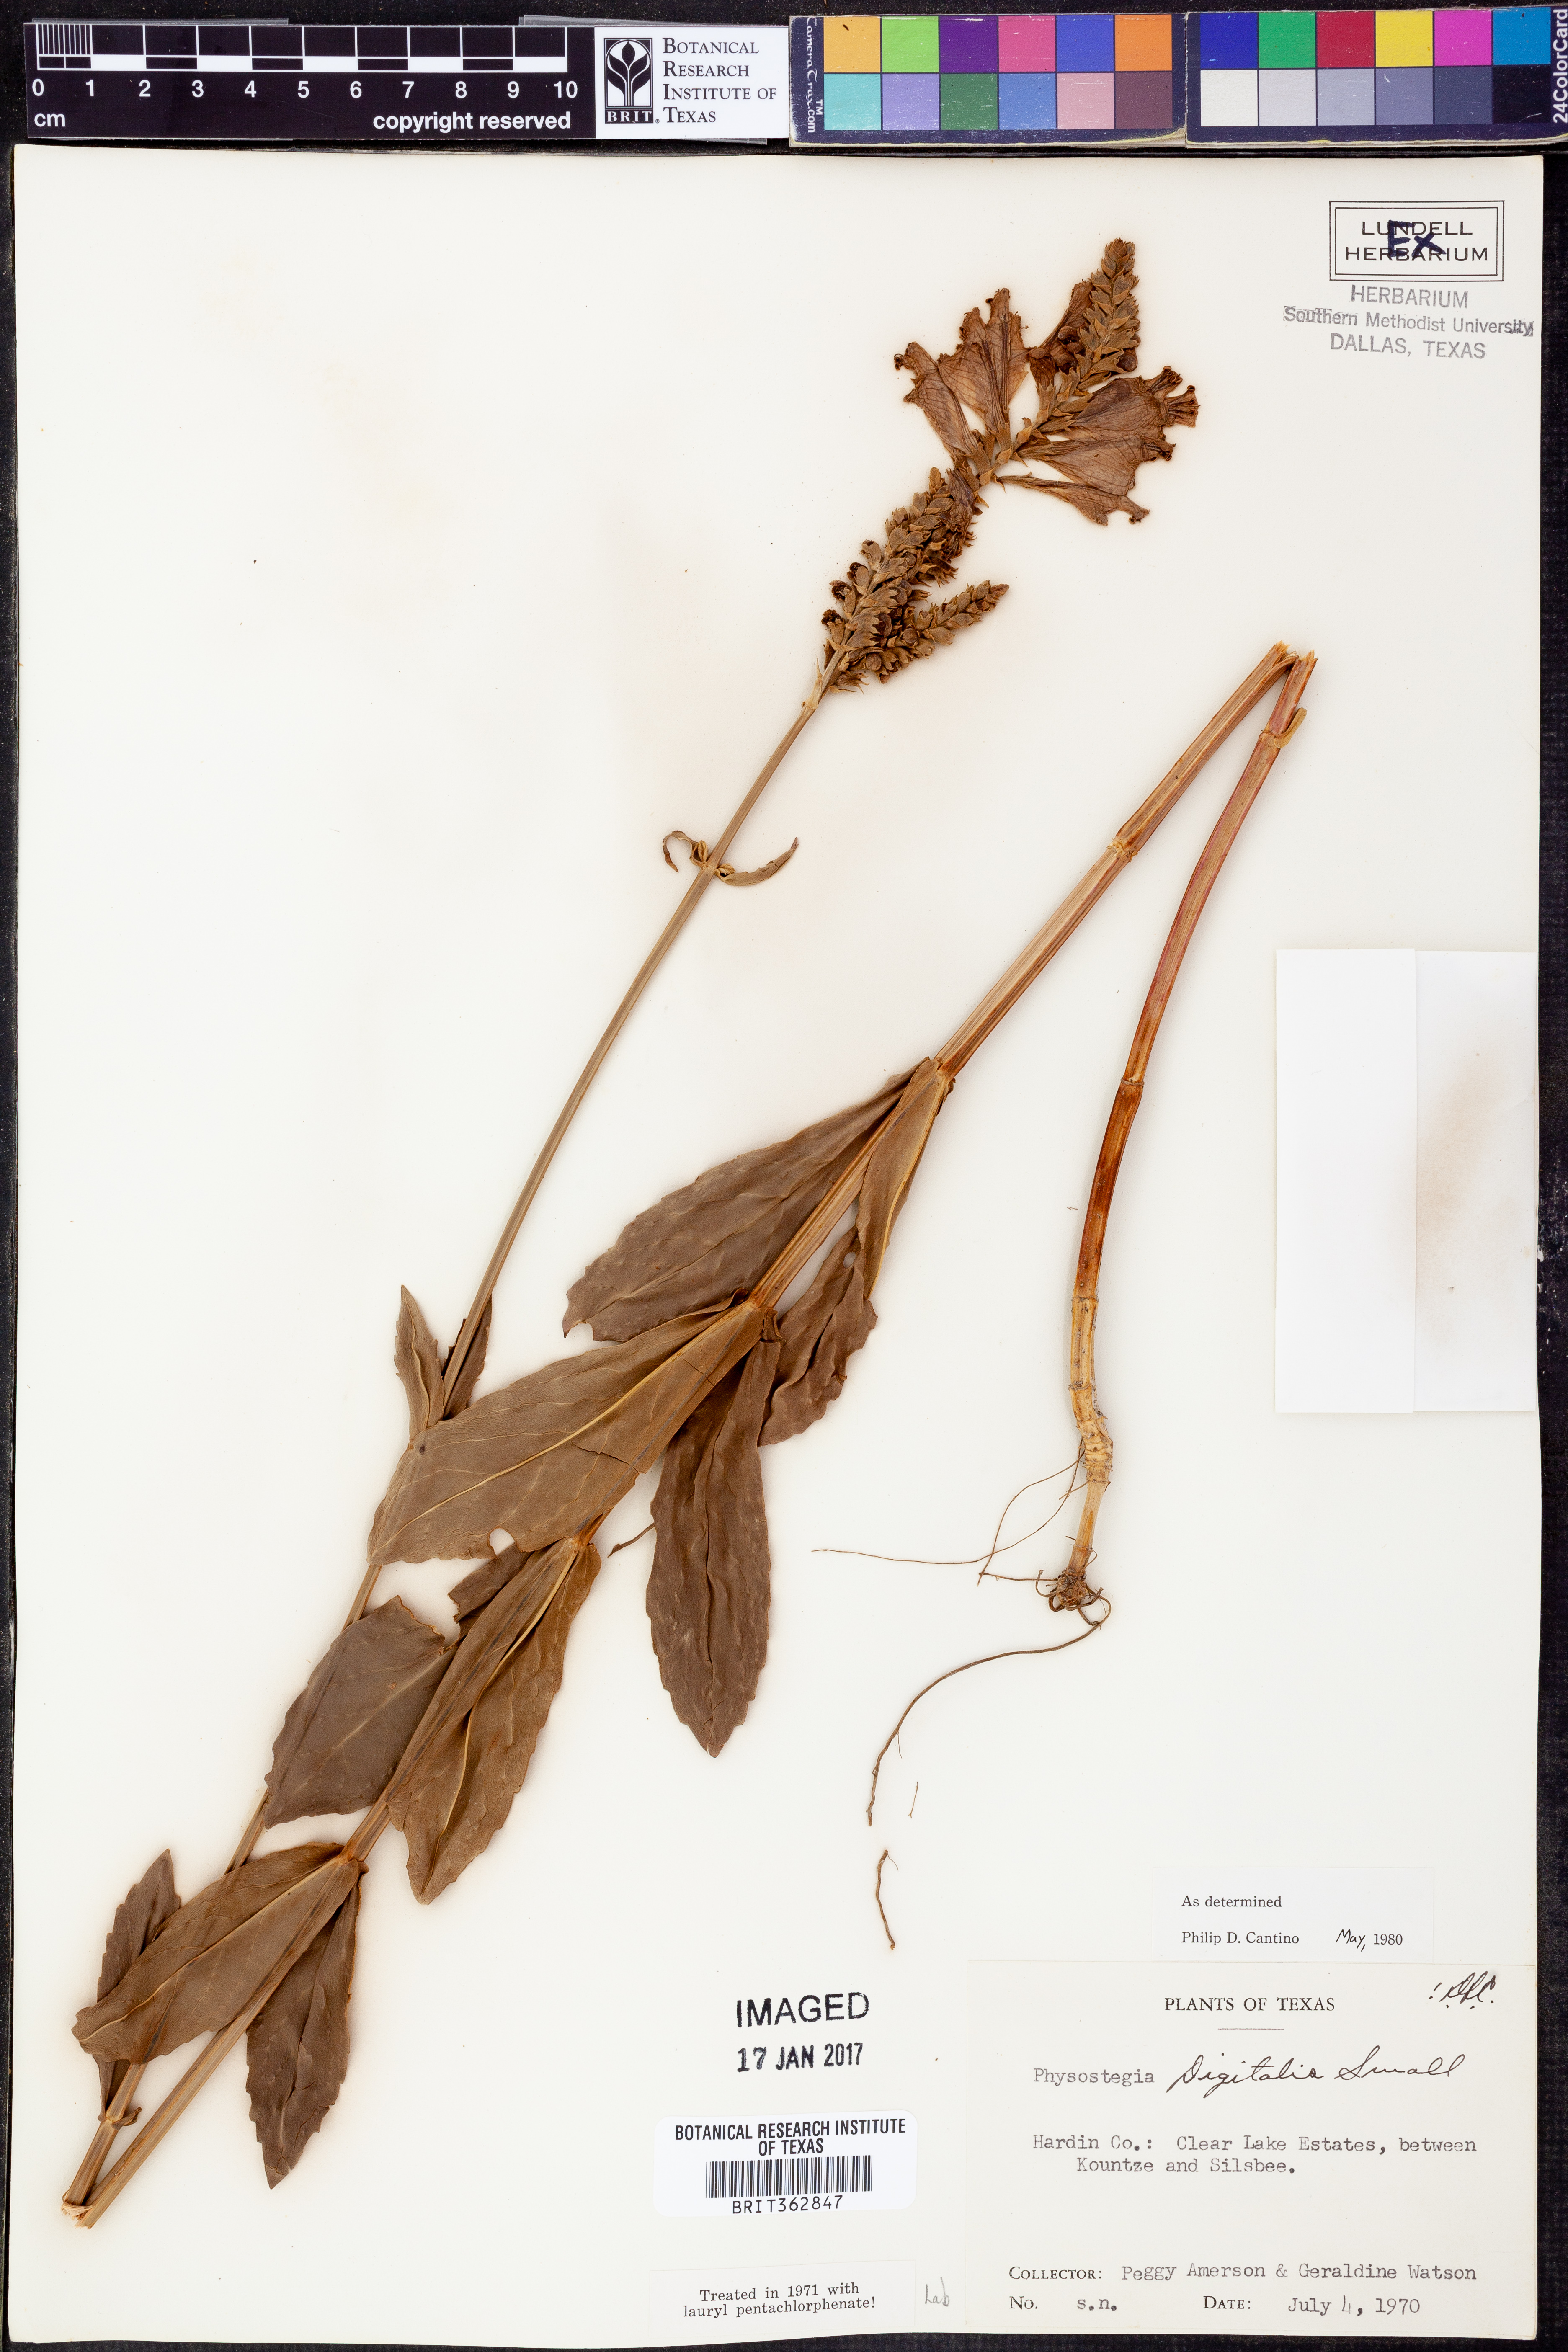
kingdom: Plantae
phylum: Tracheophyta
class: Magnoliopsida
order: Lamiales
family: Lamiaceae
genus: Physostegia
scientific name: Physostegia digitalis
